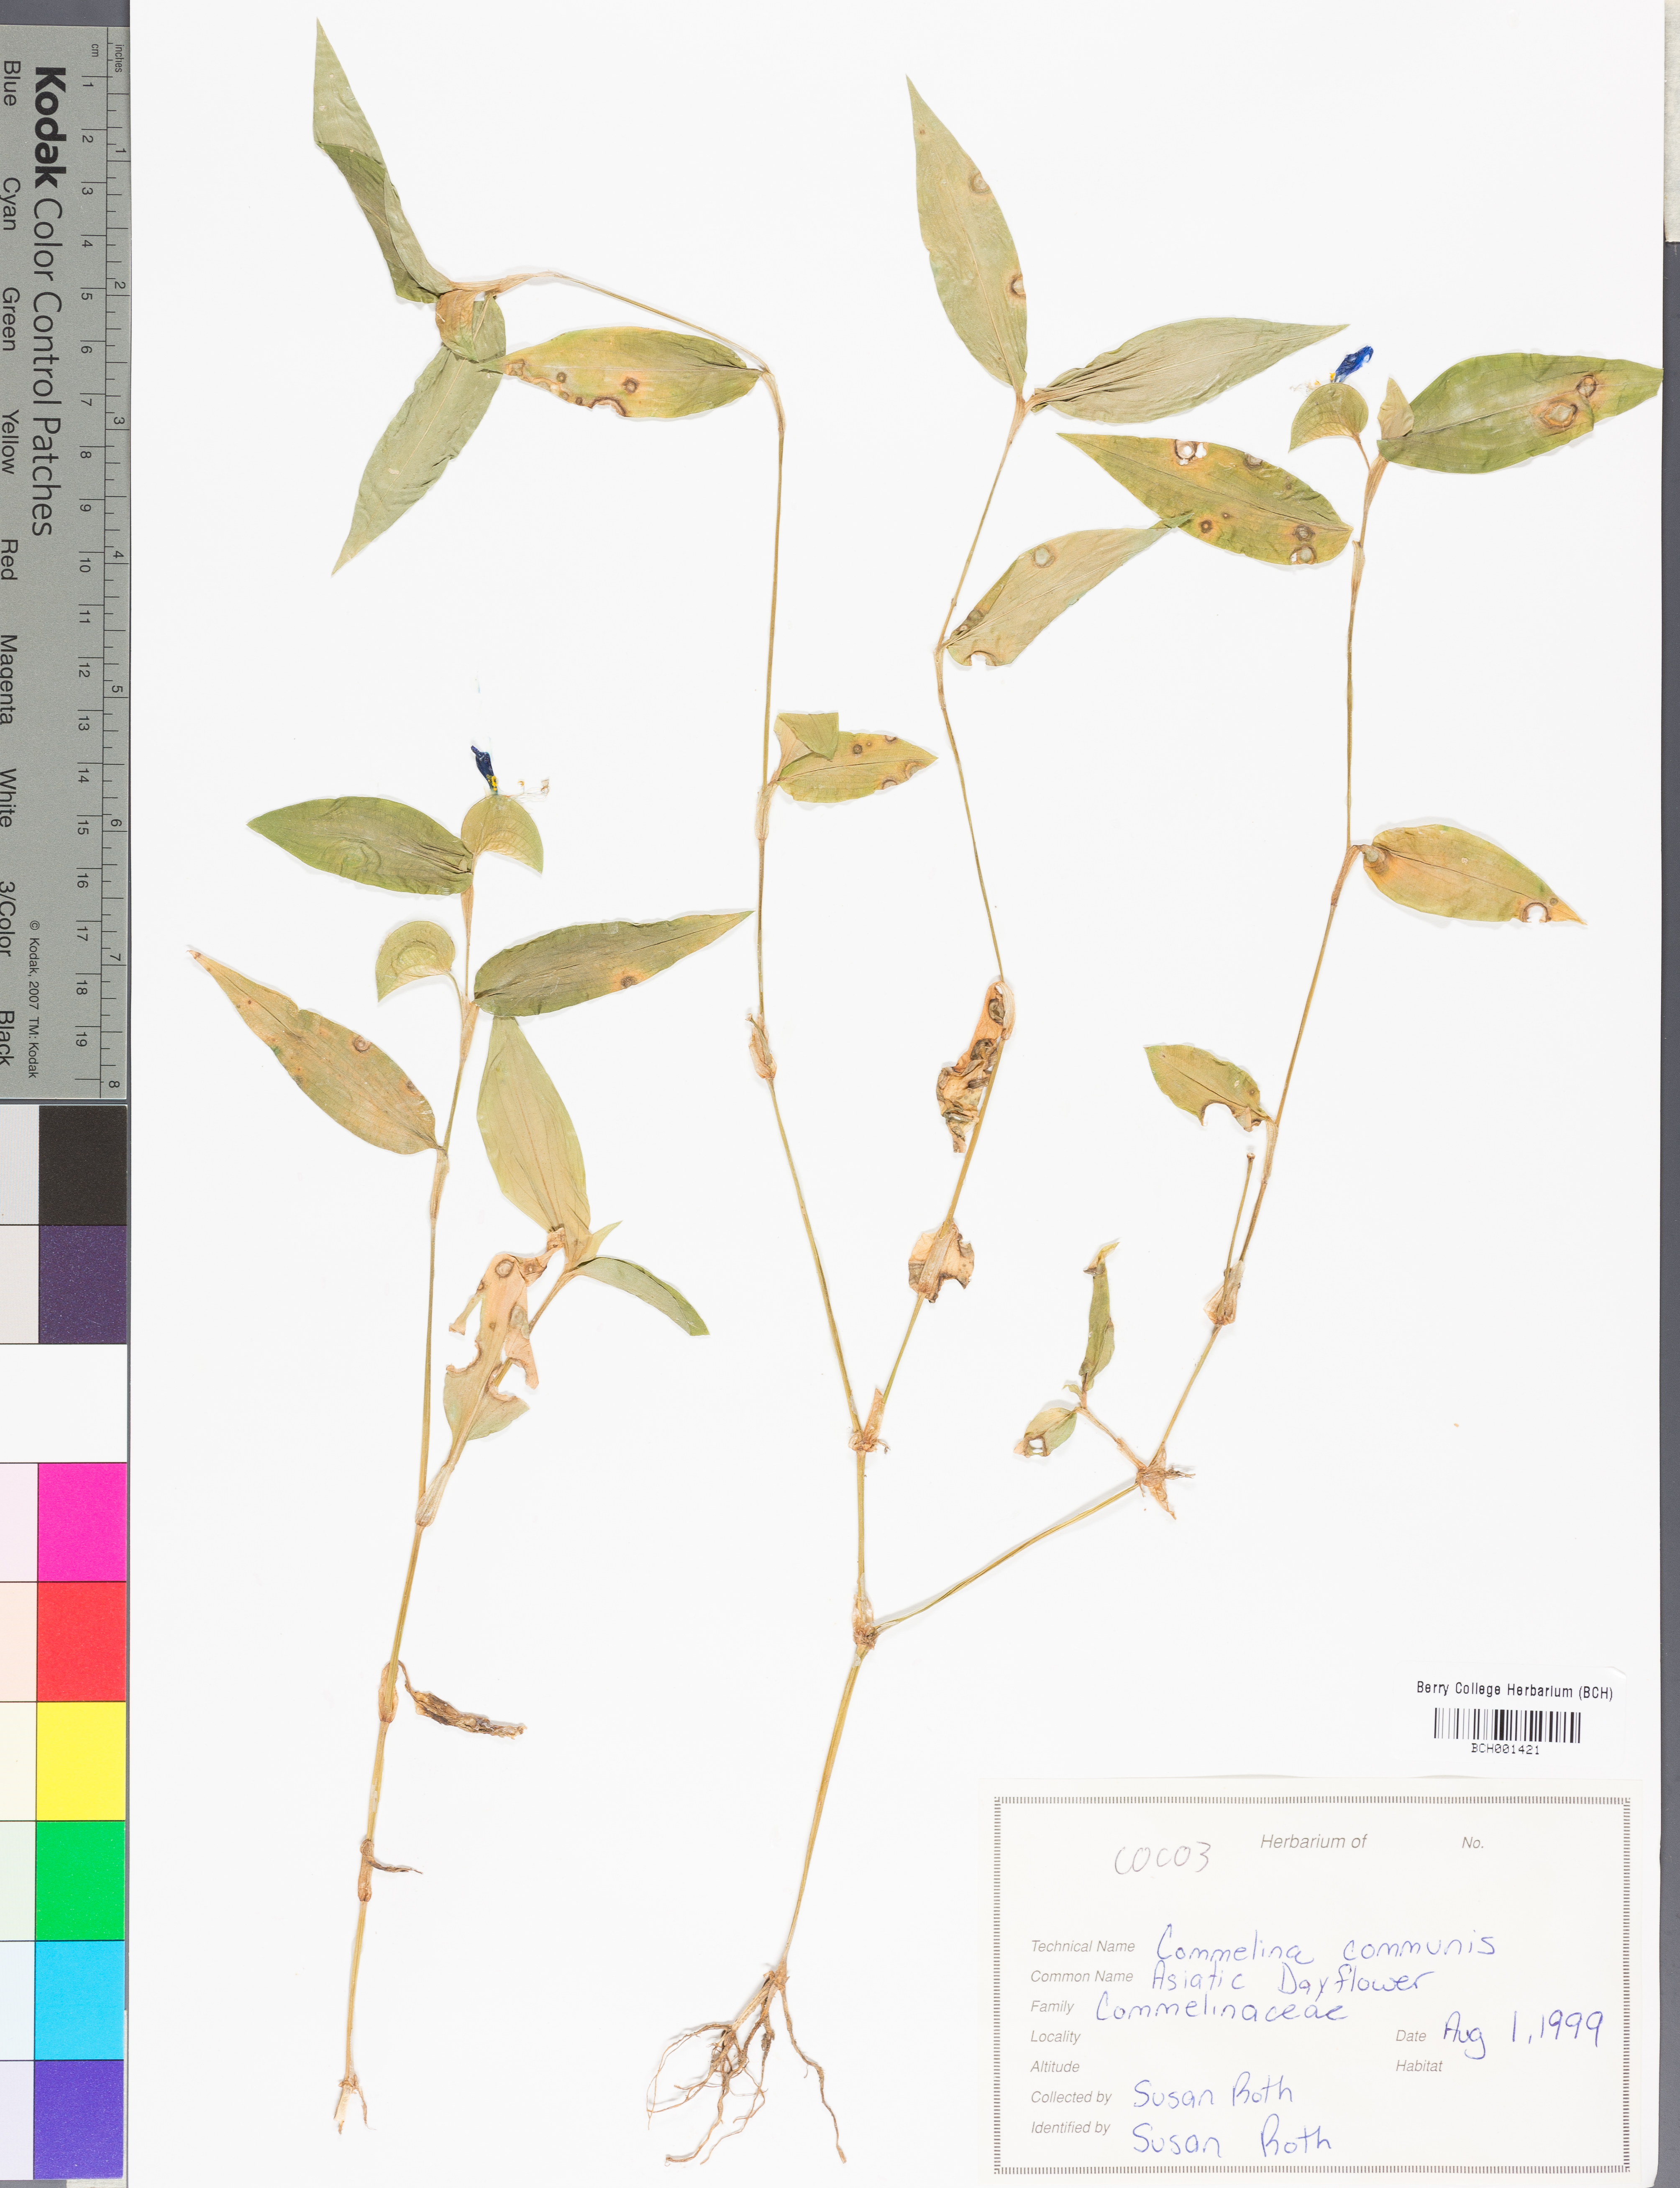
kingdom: Plantae
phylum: Tracheophyta
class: Liliopsida
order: Commelinales
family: Commelinaceae
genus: Commelina
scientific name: Commelina communis
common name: Asiatic dayflower
